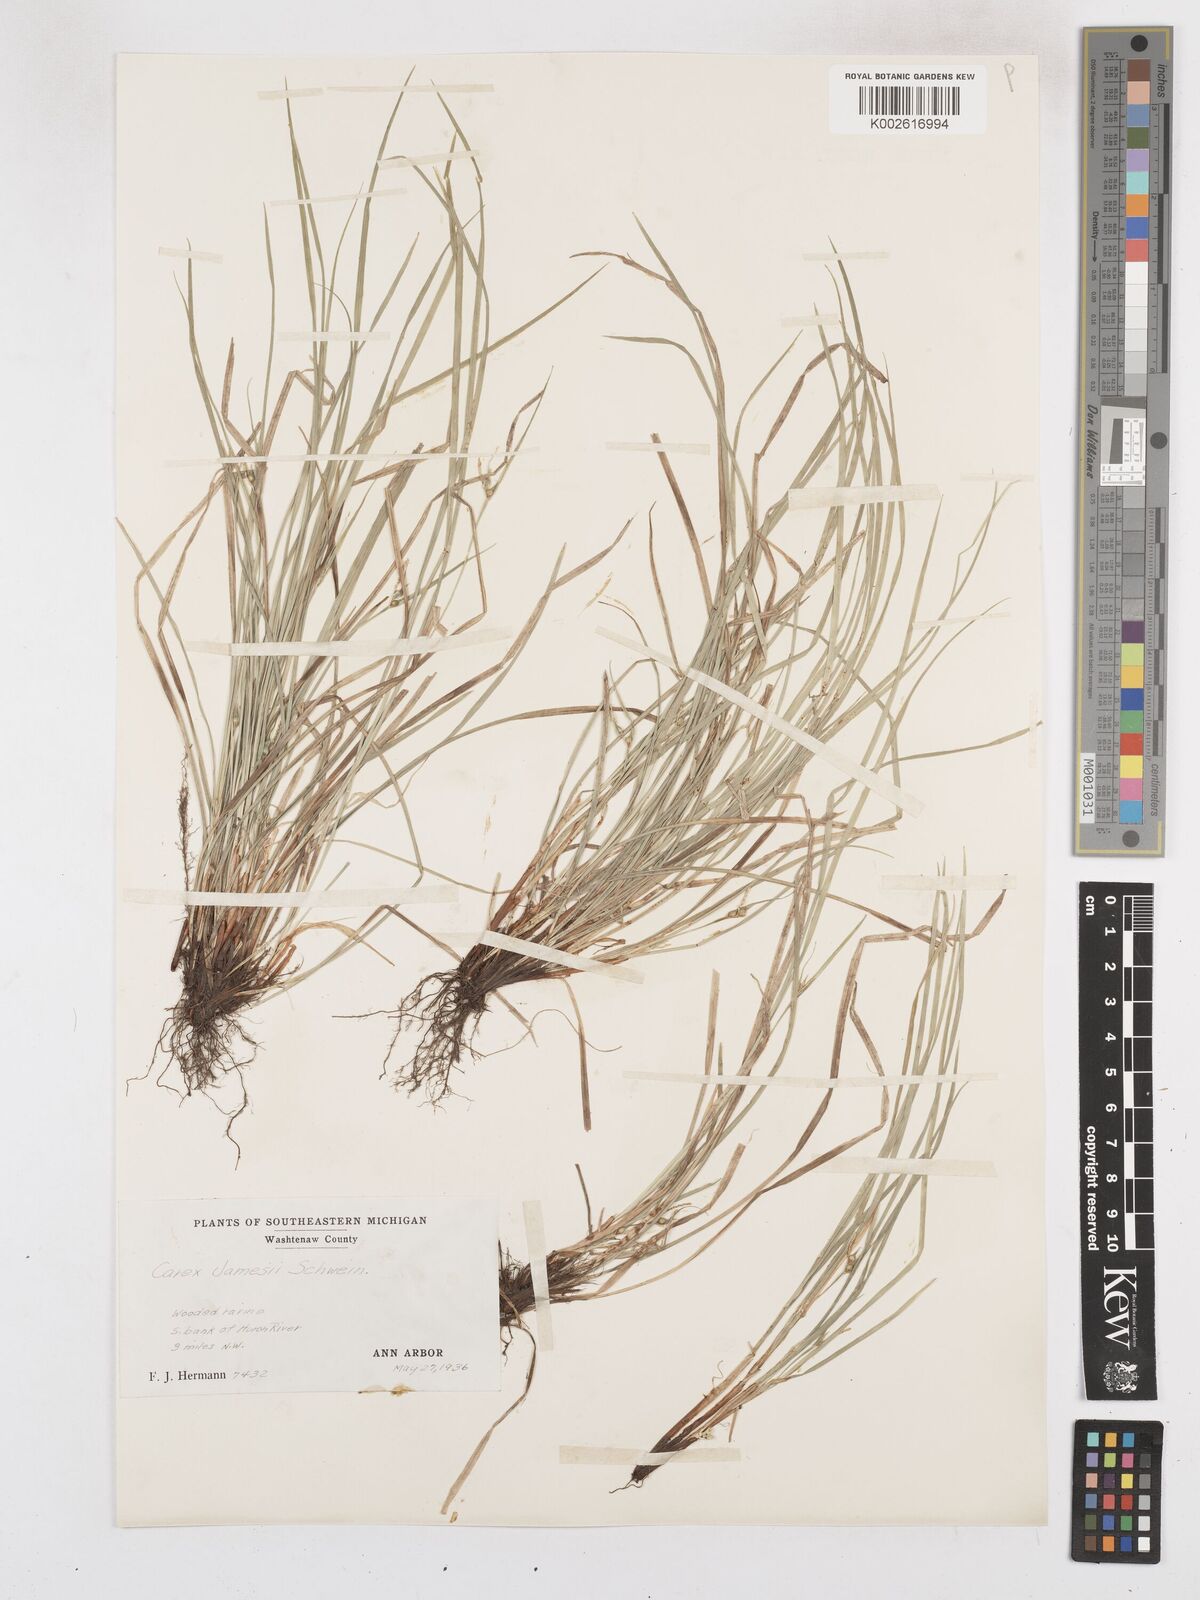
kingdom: Plantae
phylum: Tracheophyta
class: Liliopsida
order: Poales
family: Cyperaceae
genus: Carex
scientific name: Carex jamesii
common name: Grass sedge
